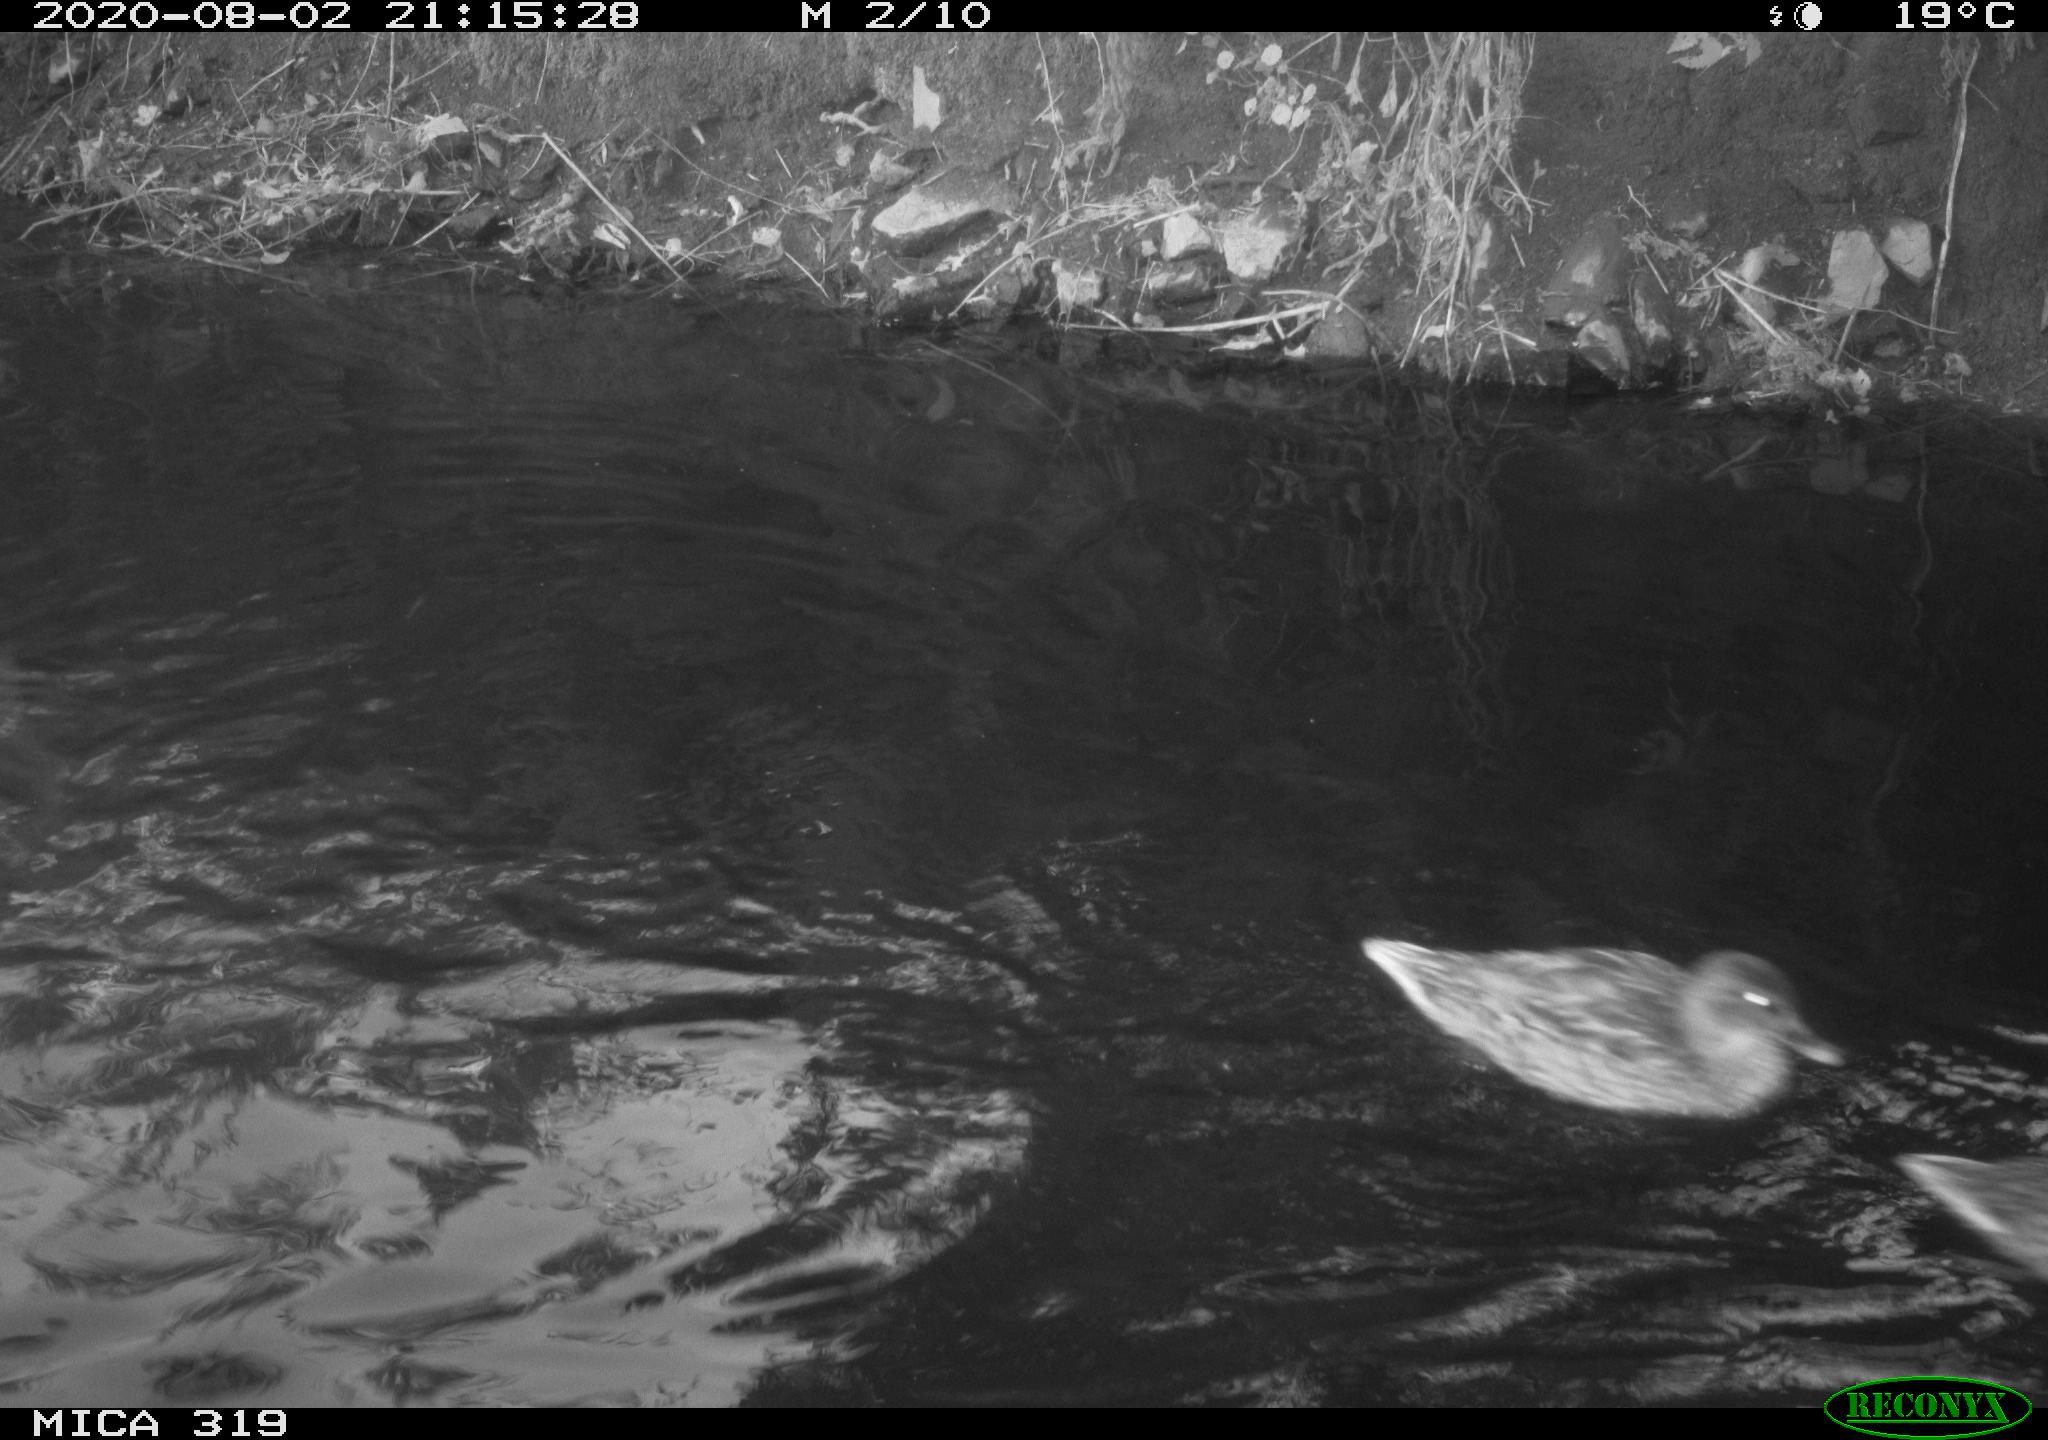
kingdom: Animalia
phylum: Chordata
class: Aves
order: Anseriformes
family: Anatidae
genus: Anas
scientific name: Anas platyrhynchos
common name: Mallard
